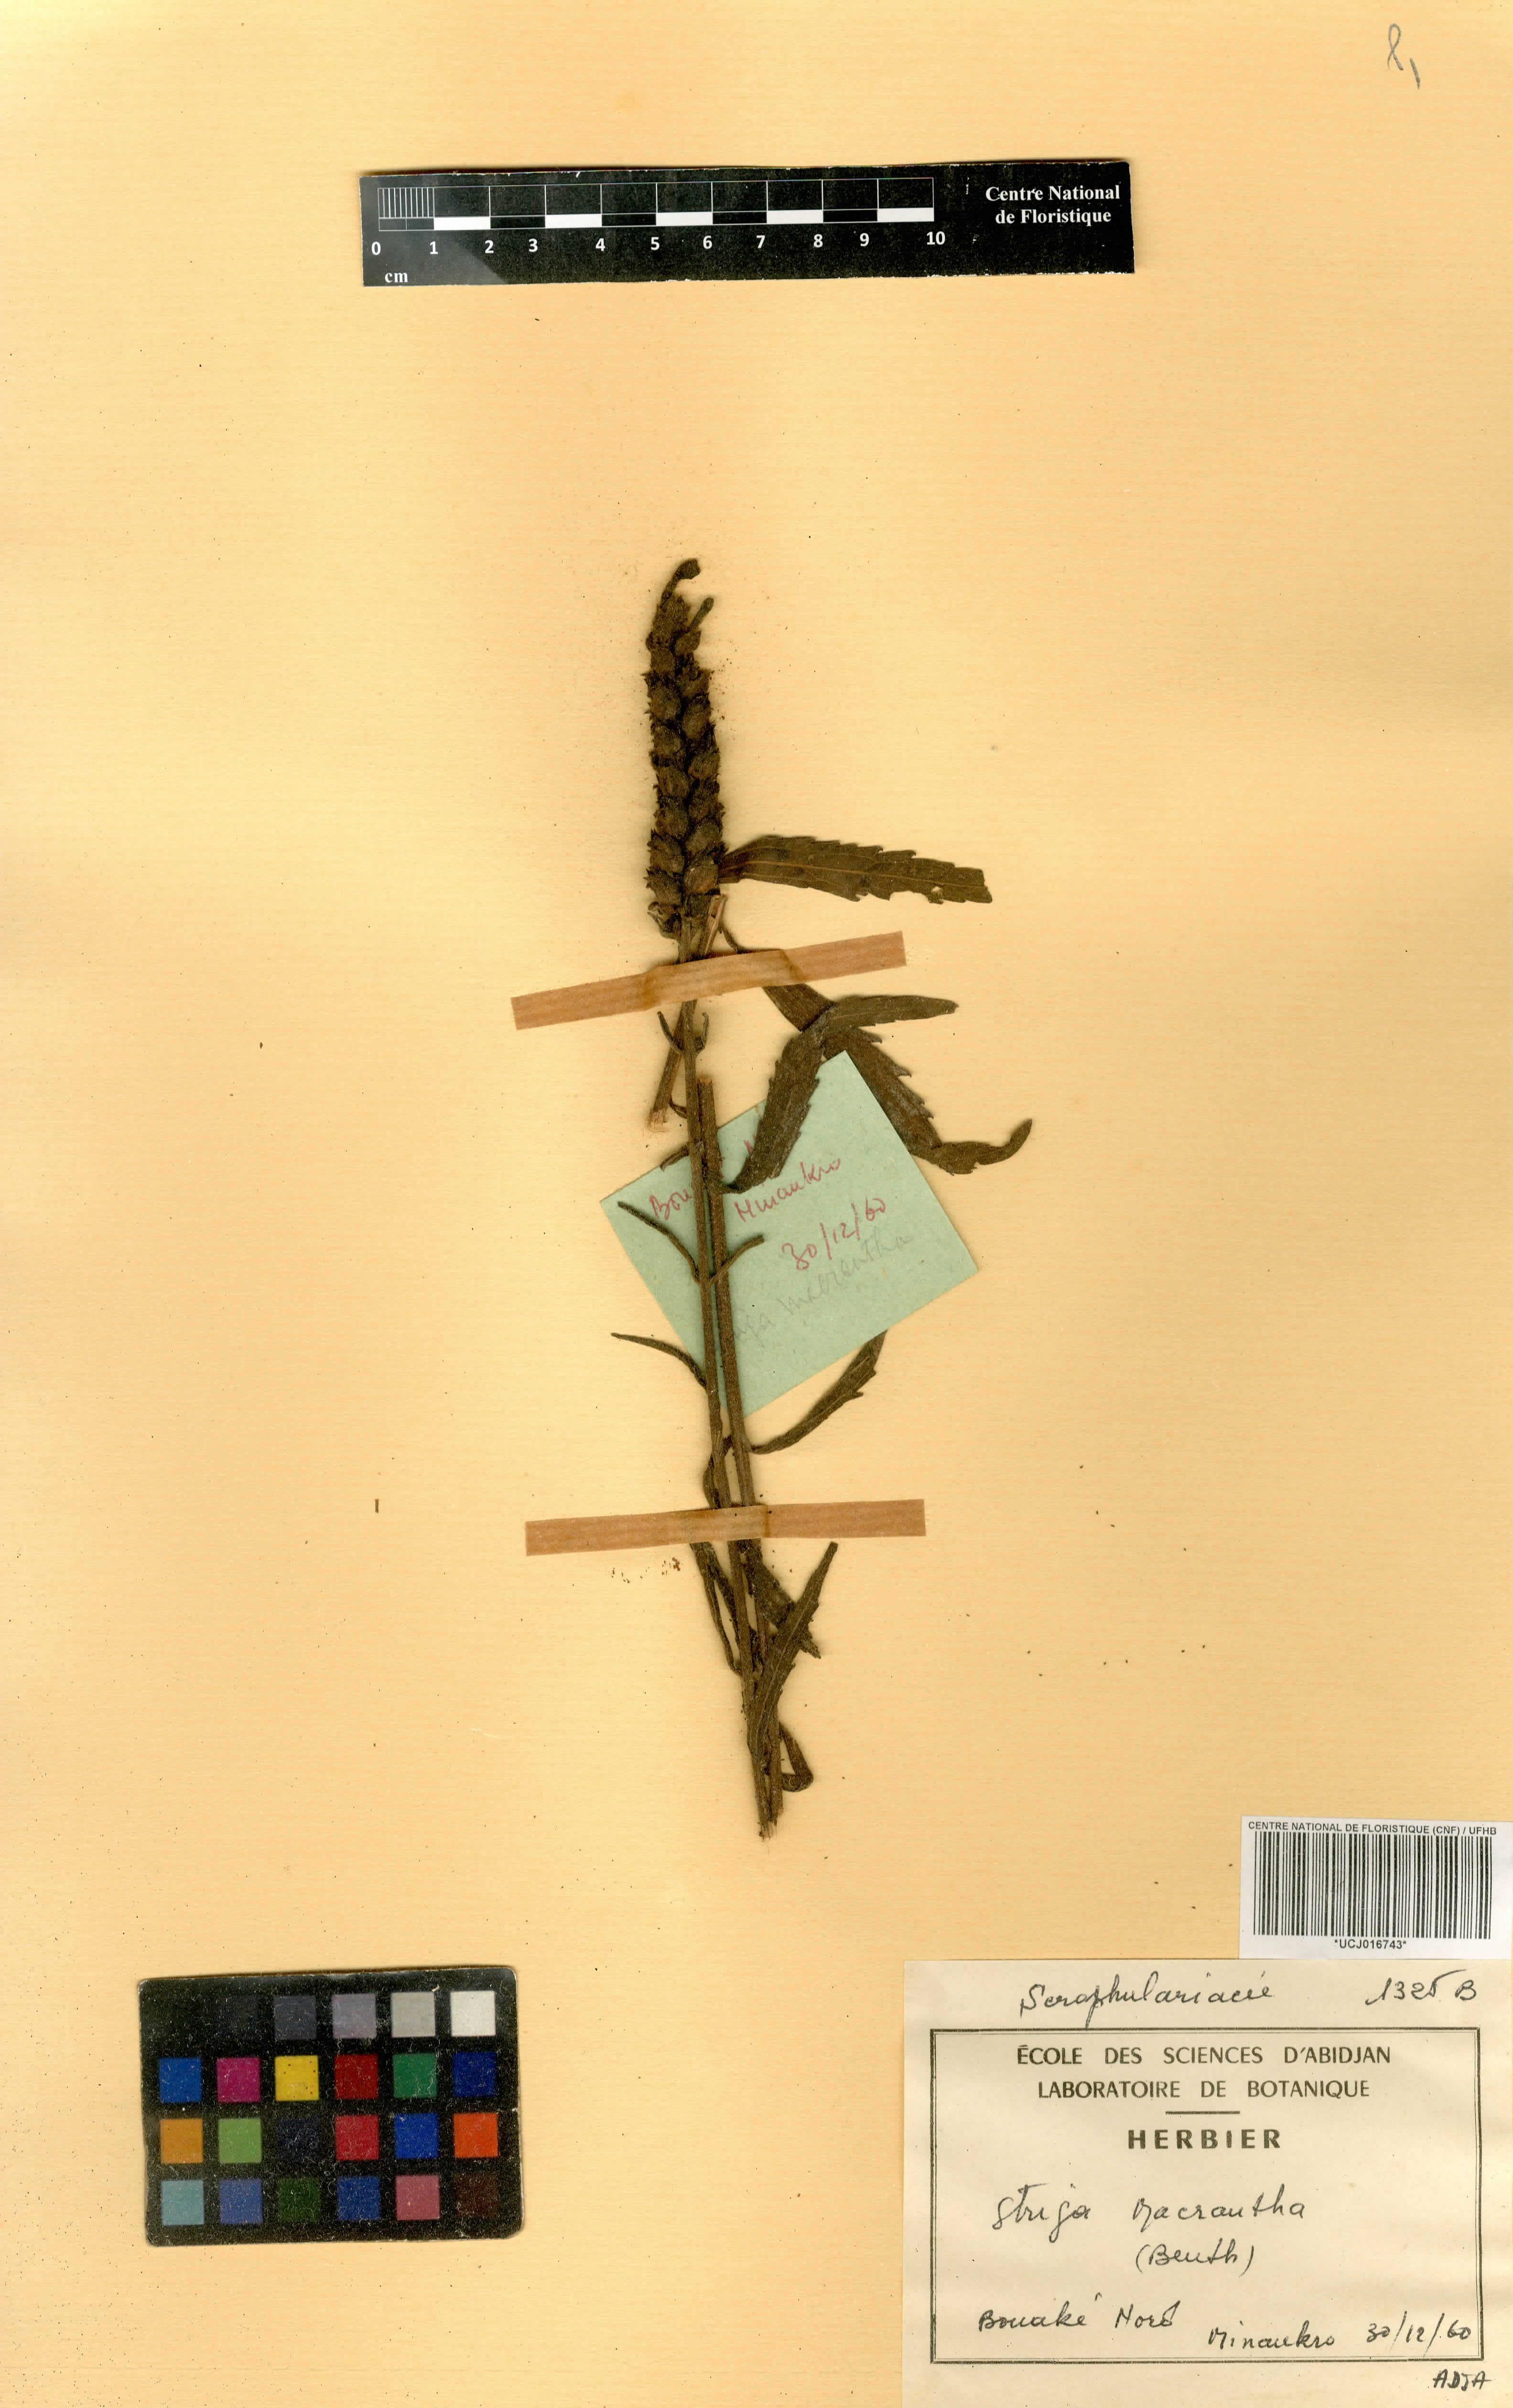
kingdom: Plantae
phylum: Tracheophyta
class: Magnoliopsida
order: Lamiales
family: Orobanchaceae
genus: Striga
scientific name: Striga macrantha
